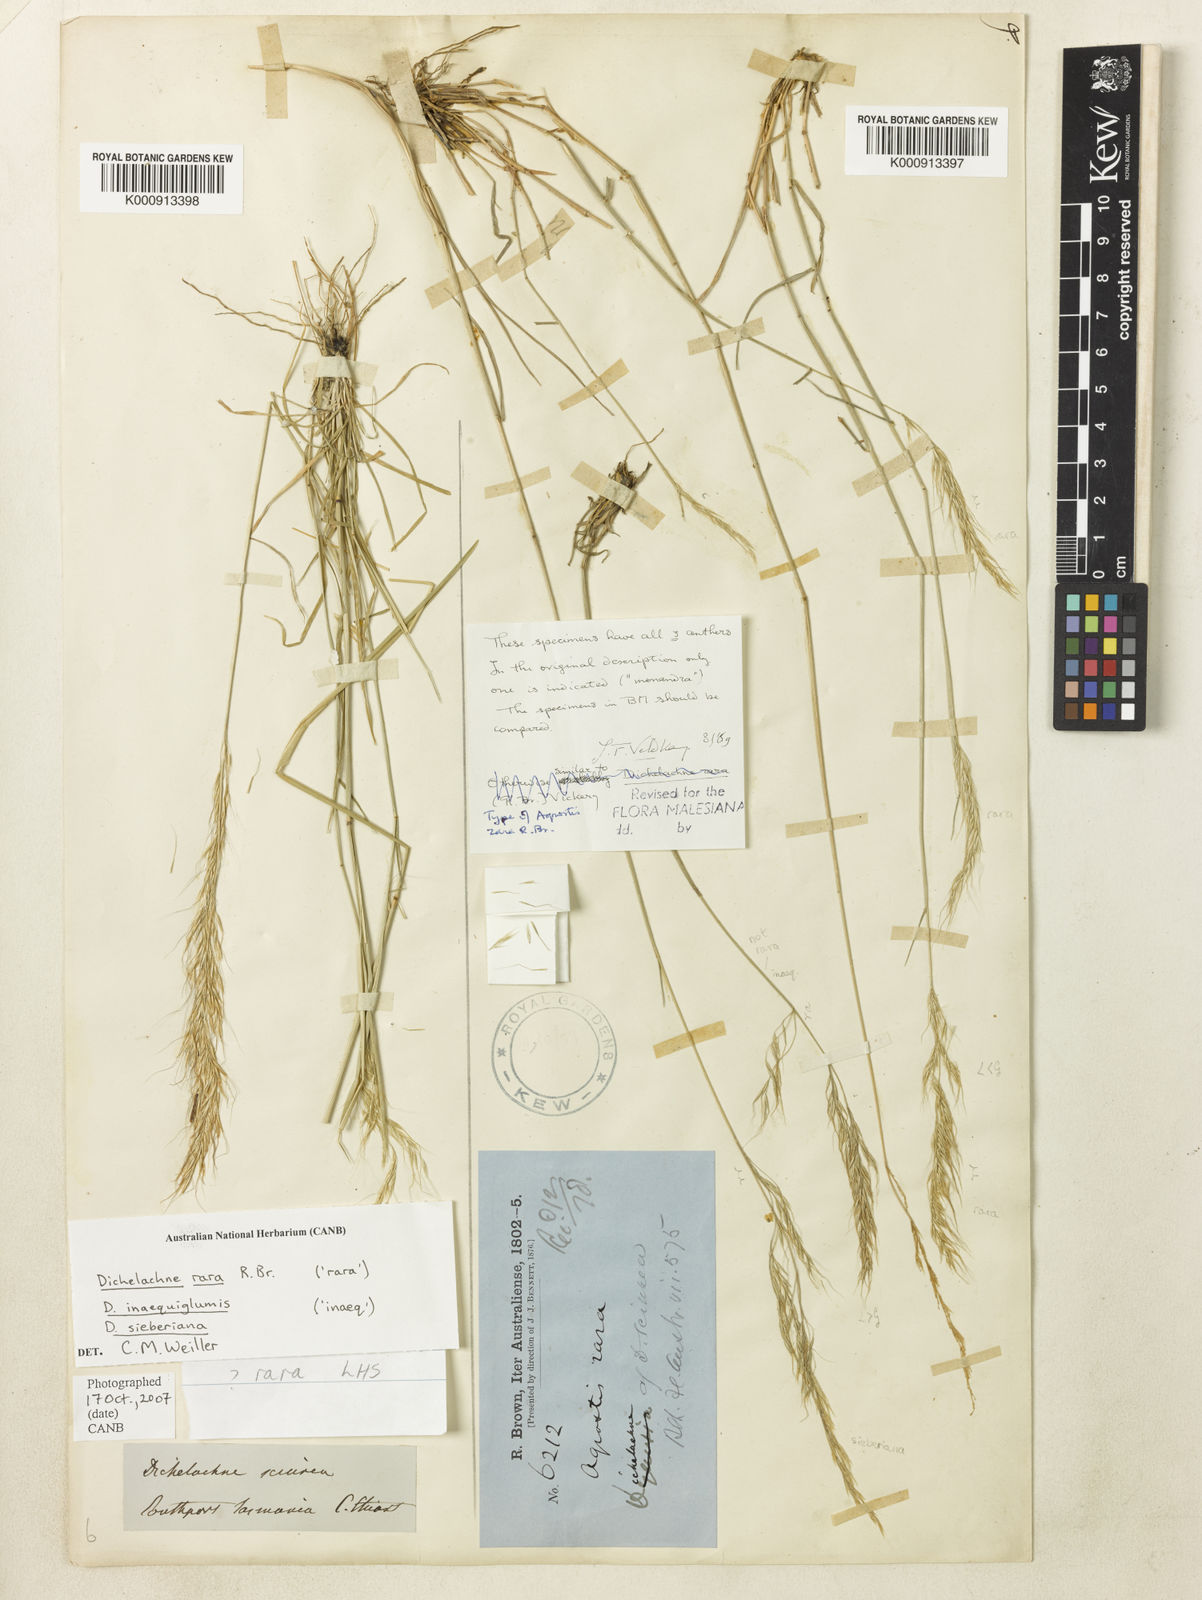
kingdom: Plantae
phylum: Tracheophyta
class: Liliopsida
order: Poales
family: Poaceae
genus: Dichelachne
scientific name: Dichelachne rara
